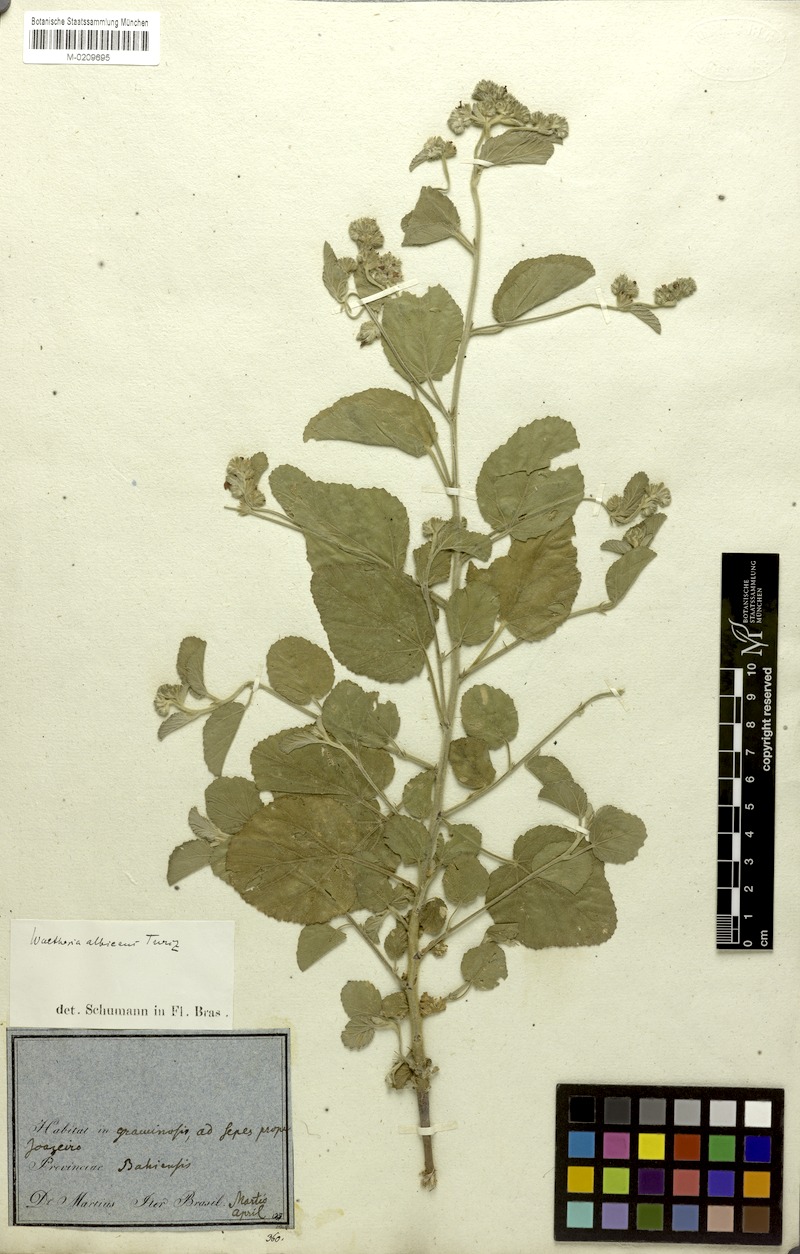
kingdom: Plantae
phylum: Tracheophyta
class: Magnoliopsida
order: Malvales
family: Malvaceae
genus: Waltheria
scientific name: Waltheria albicans
